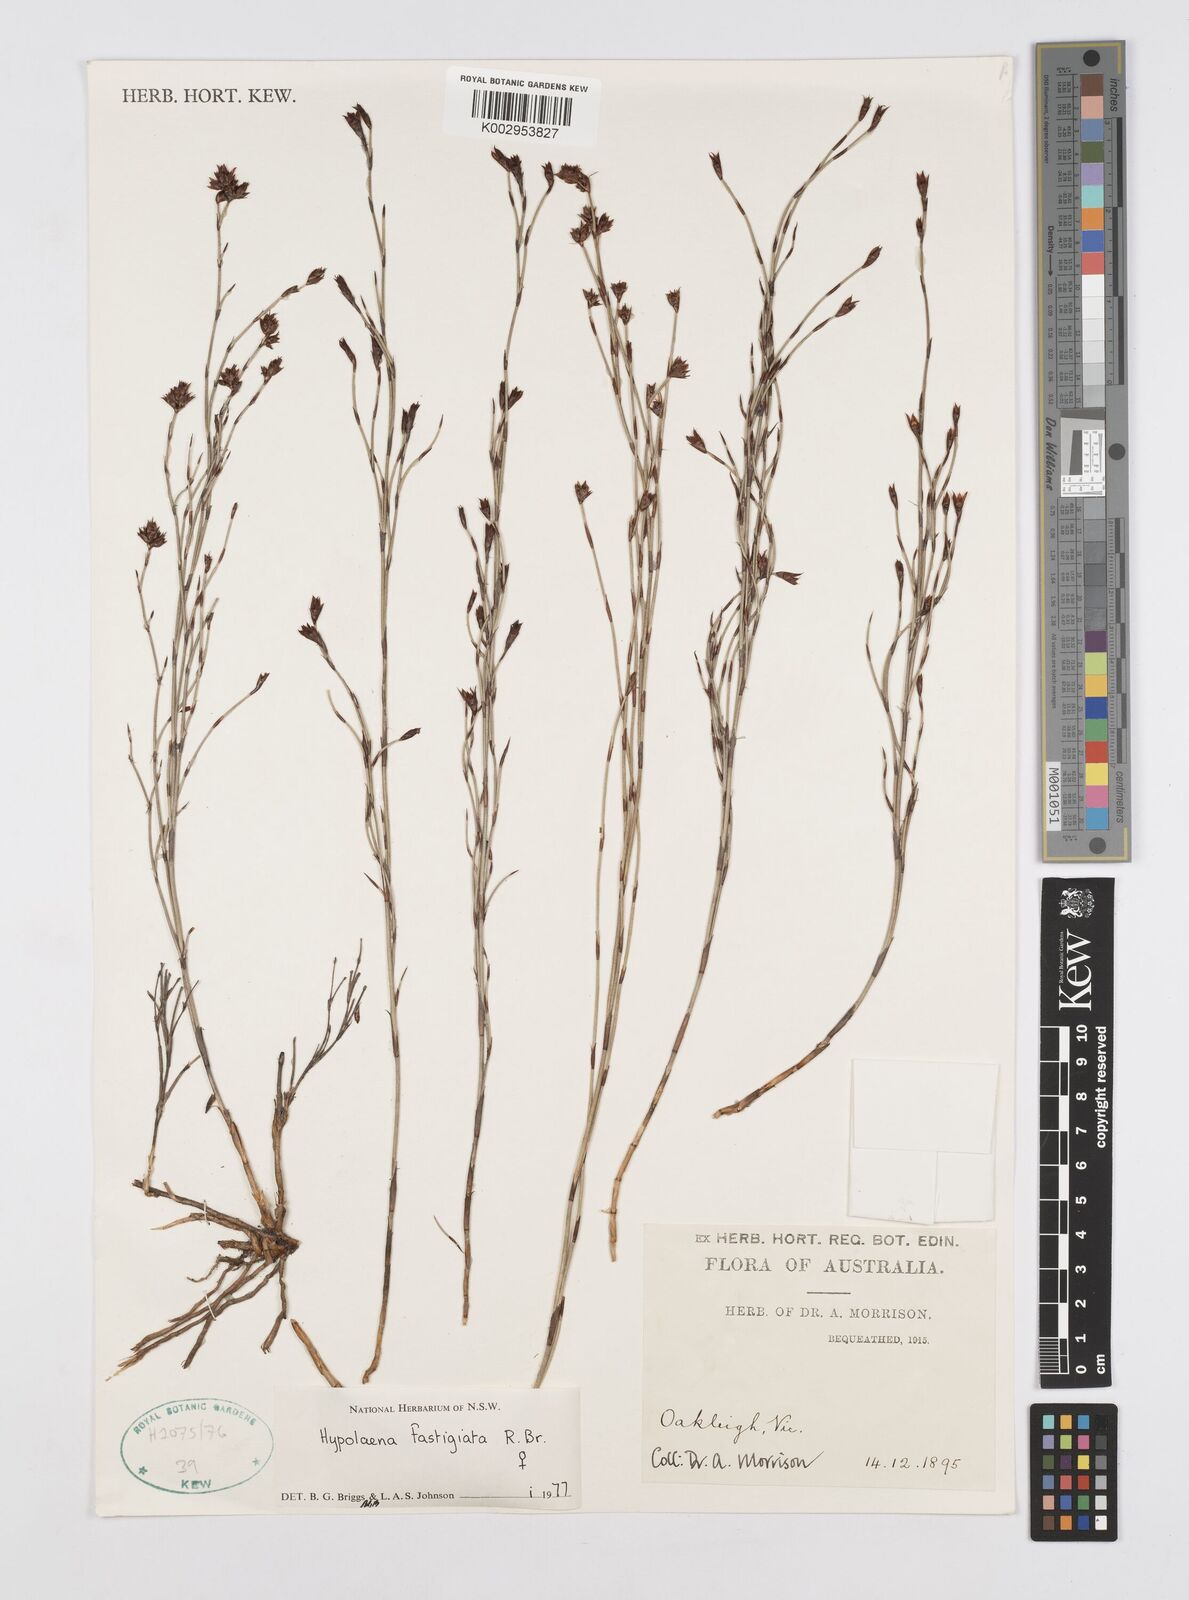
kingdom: Plantae
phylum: Tracheophyta
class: Liliopsida
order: Poales
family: Restionaceae
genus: Hypolaena
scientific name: Hypolaena fastigiata
